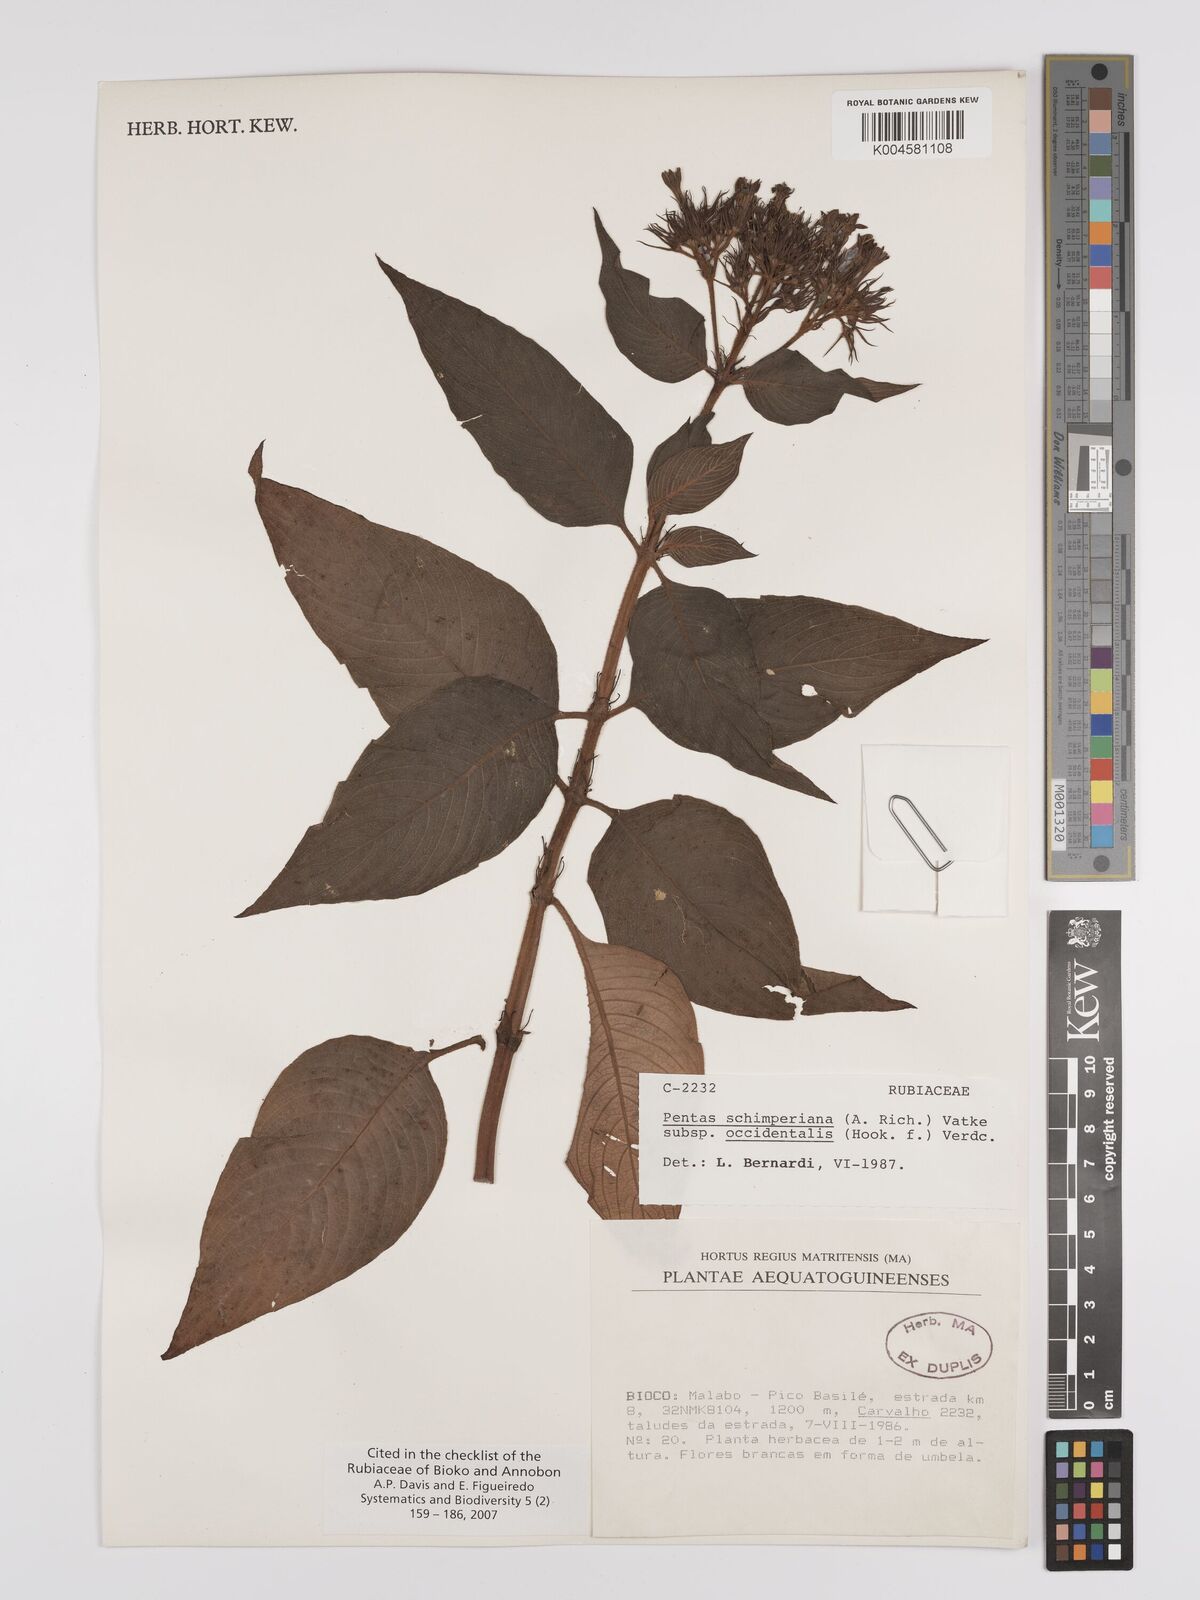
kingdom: Plantae
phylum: Tracheophyta
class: Magnoliopsida
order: Gentianales
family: Rubiaceae
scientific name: Rubiaceae
